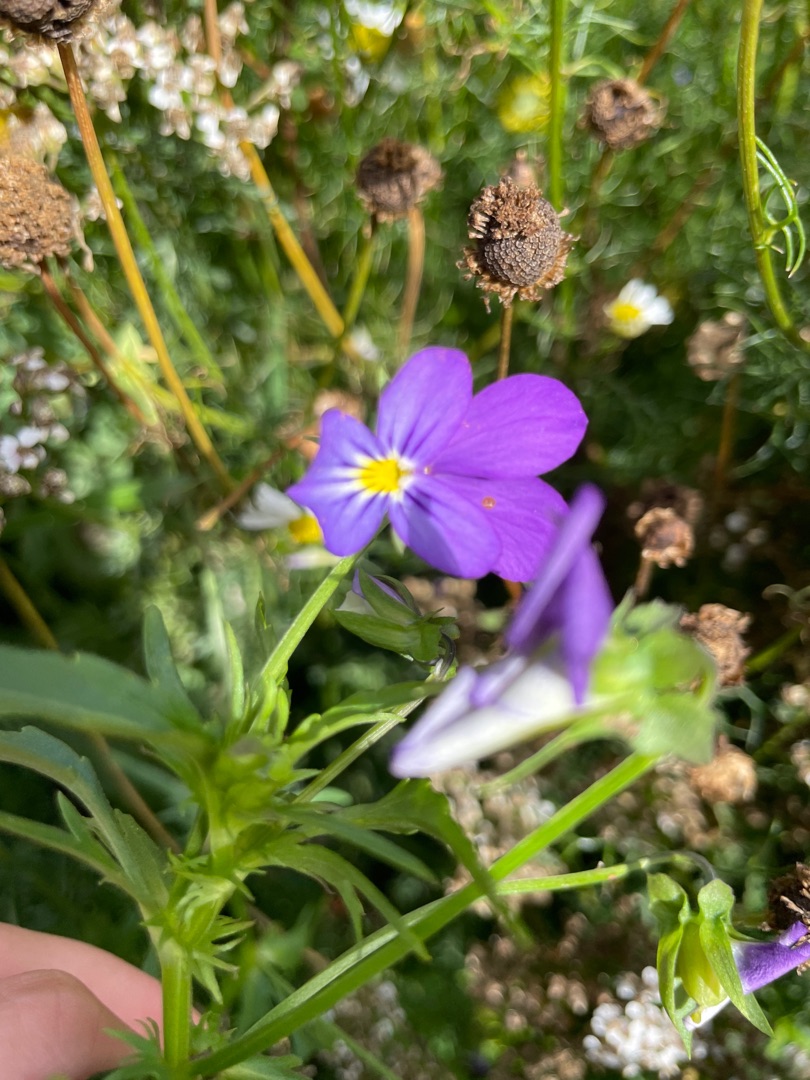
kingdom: Plantae
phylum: Tracheophyta
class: Magnoliopsida
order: Malpighiales
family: Violaceae
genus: Viola
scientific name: Viola tricolor
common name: Stedmoderblomst
